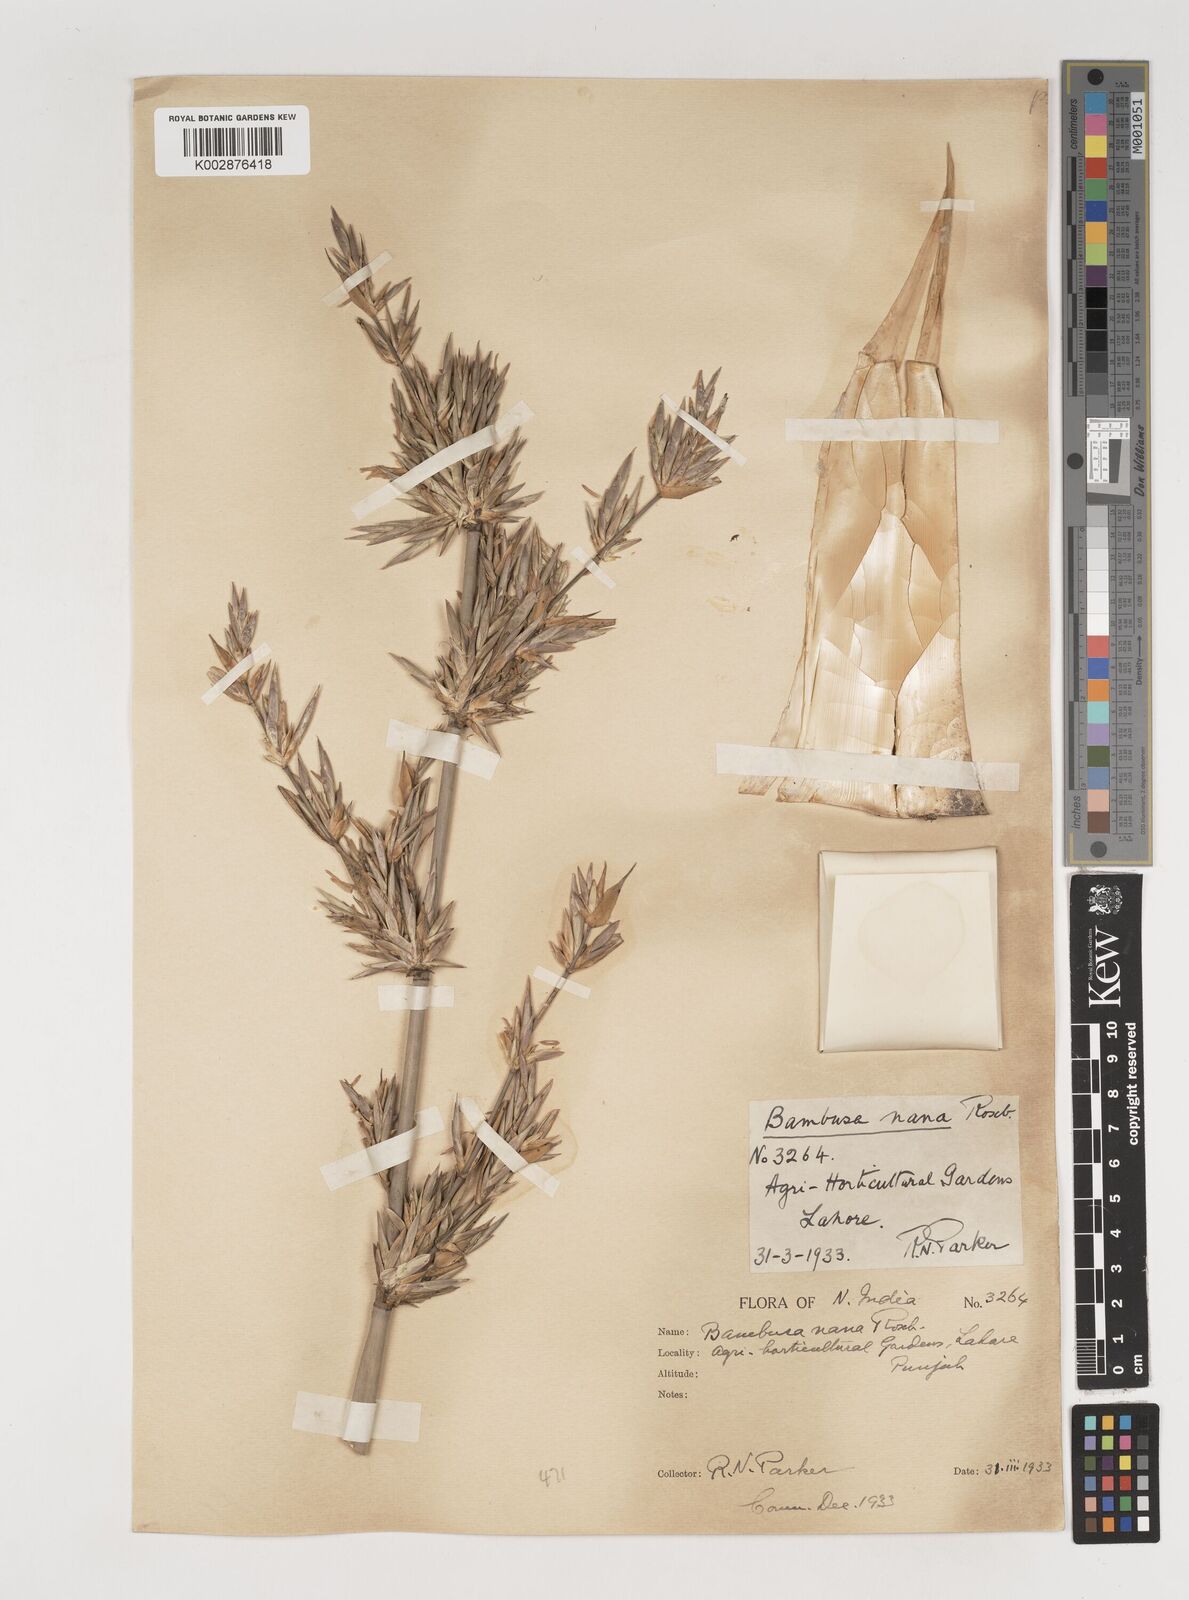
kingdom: Plantae
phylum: Tracheophyta
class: Liliopsida
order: Poales
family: Poaceae
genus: Bambusa
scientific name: Bambusa multiplex
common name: Hedge bamboo
